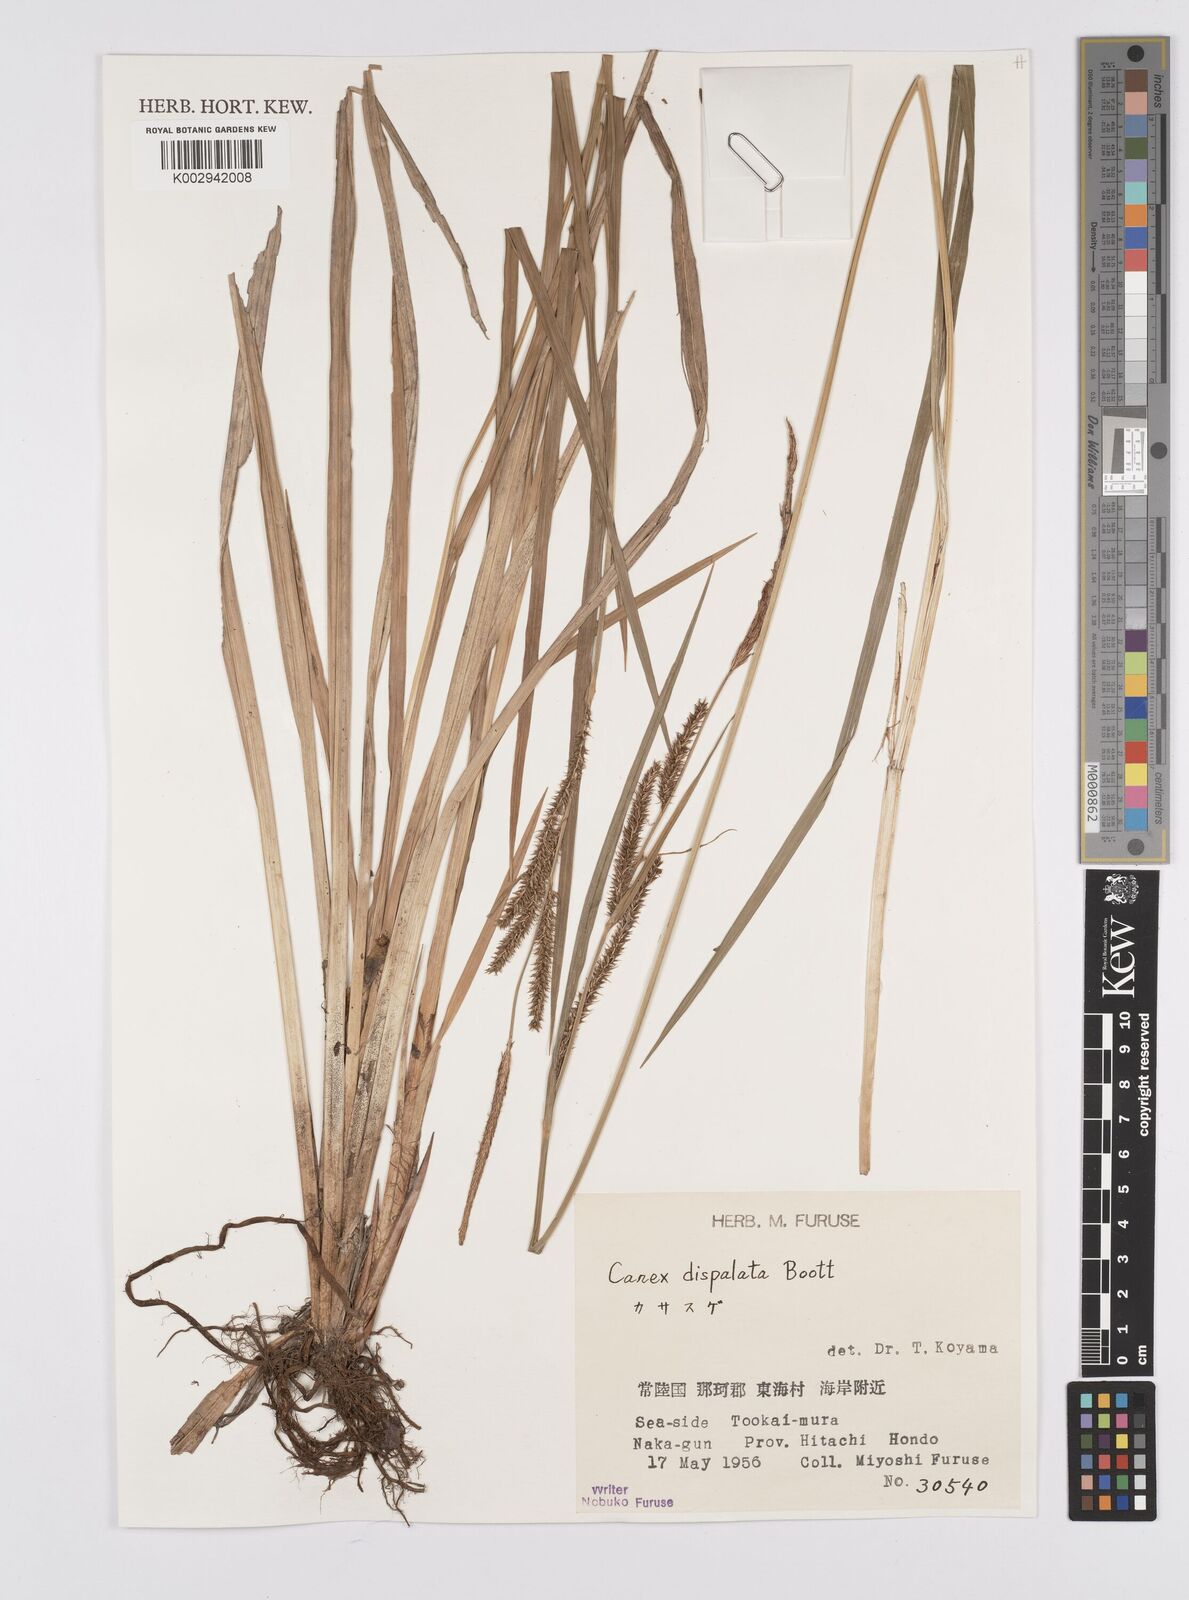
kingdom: Plantae
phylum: Tracheophyta
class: Liliopsida
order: Poales
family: Cyperaceae
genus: Carex
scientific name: Carex dispalata
